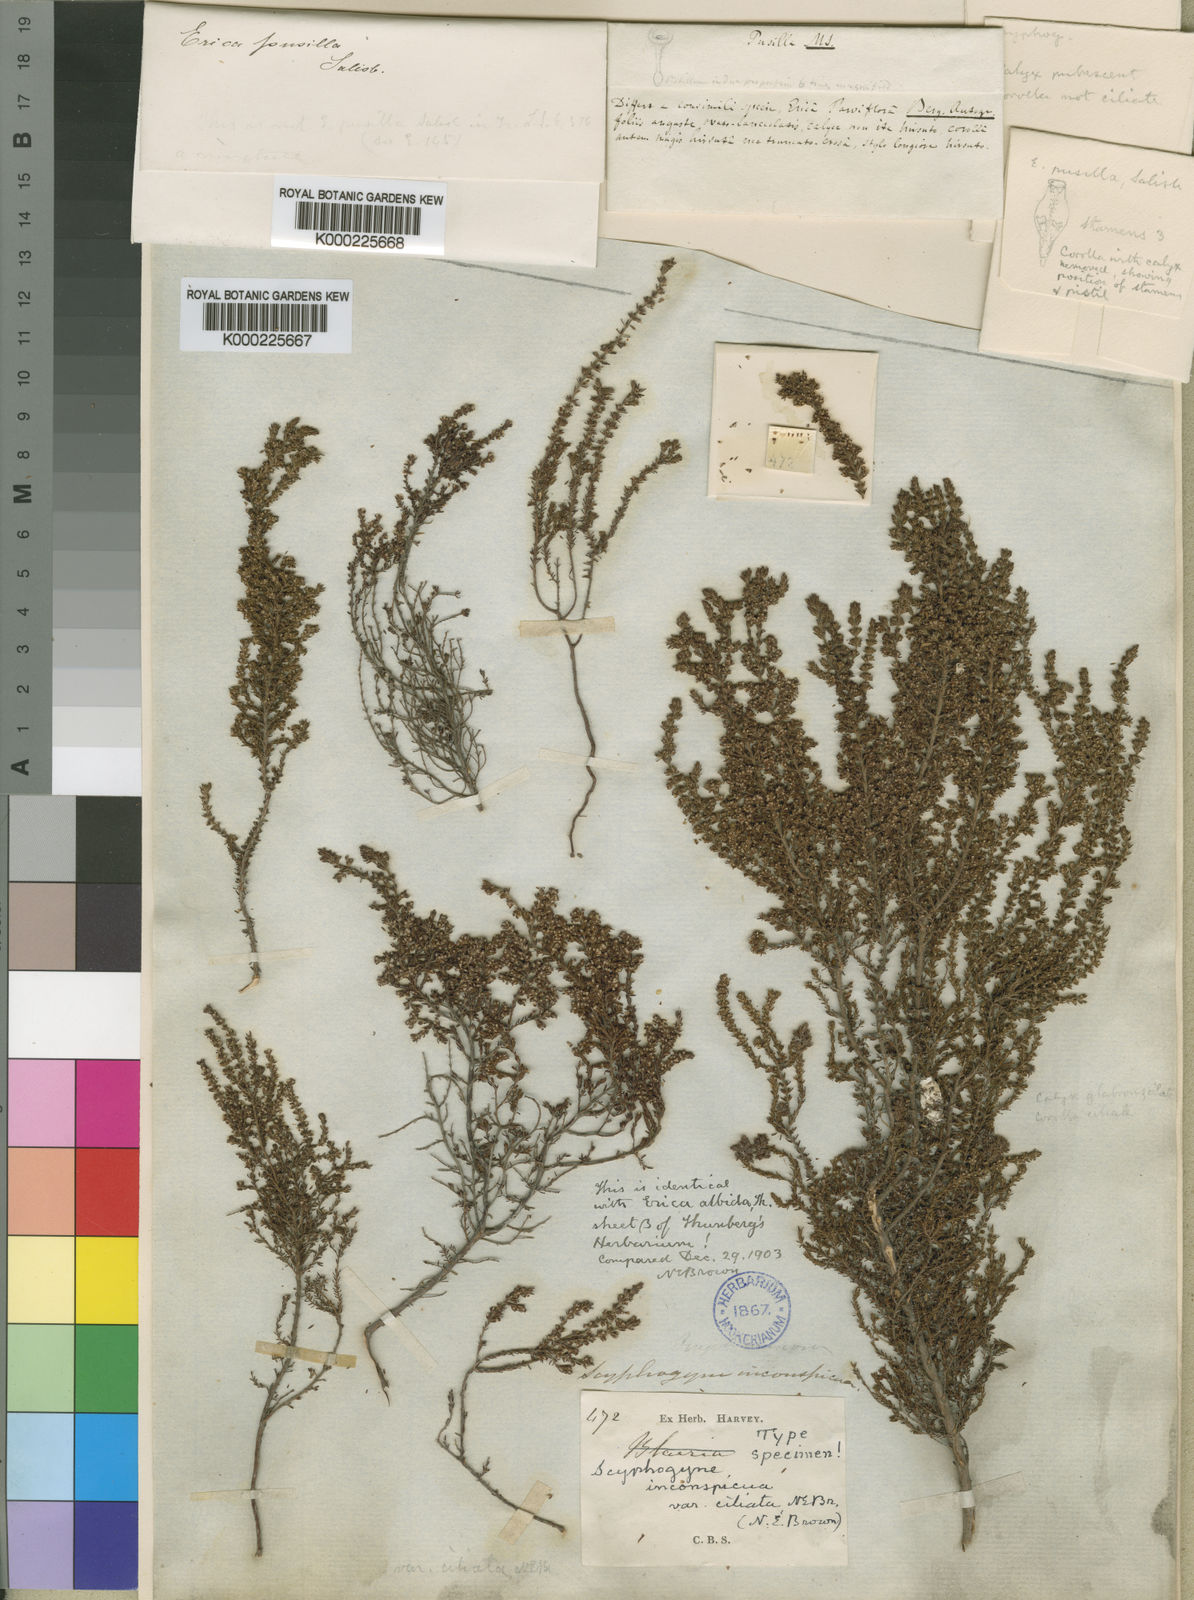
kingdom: Plantae
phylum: Tracheophyta
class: Magnoliopsida
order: Ericales
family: Ericaceae
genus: Scyphogyne
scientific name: Scyphogyne
